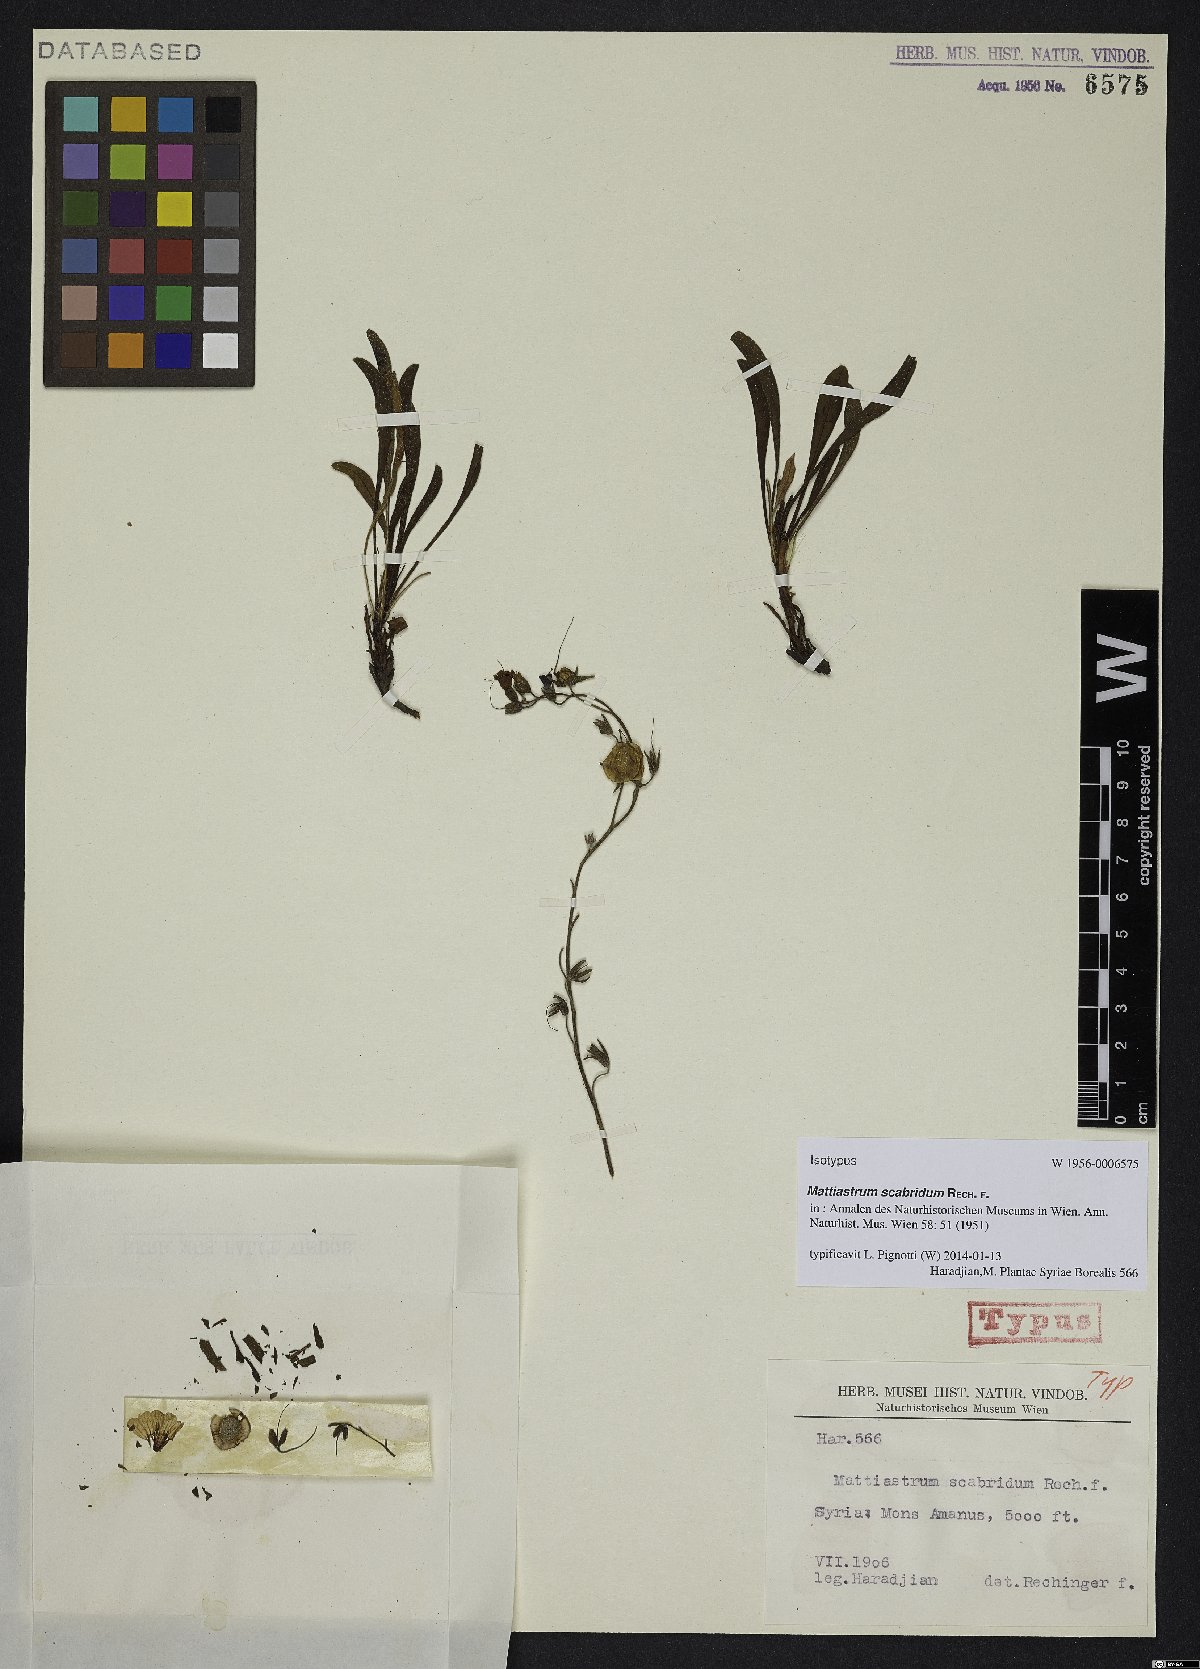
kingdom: Plantae
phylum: Tracheophyta
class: Magnoliopsida
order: Boraginales
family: Boraginaceae
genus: Paracaryum
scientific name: Paracaryum racemosum
